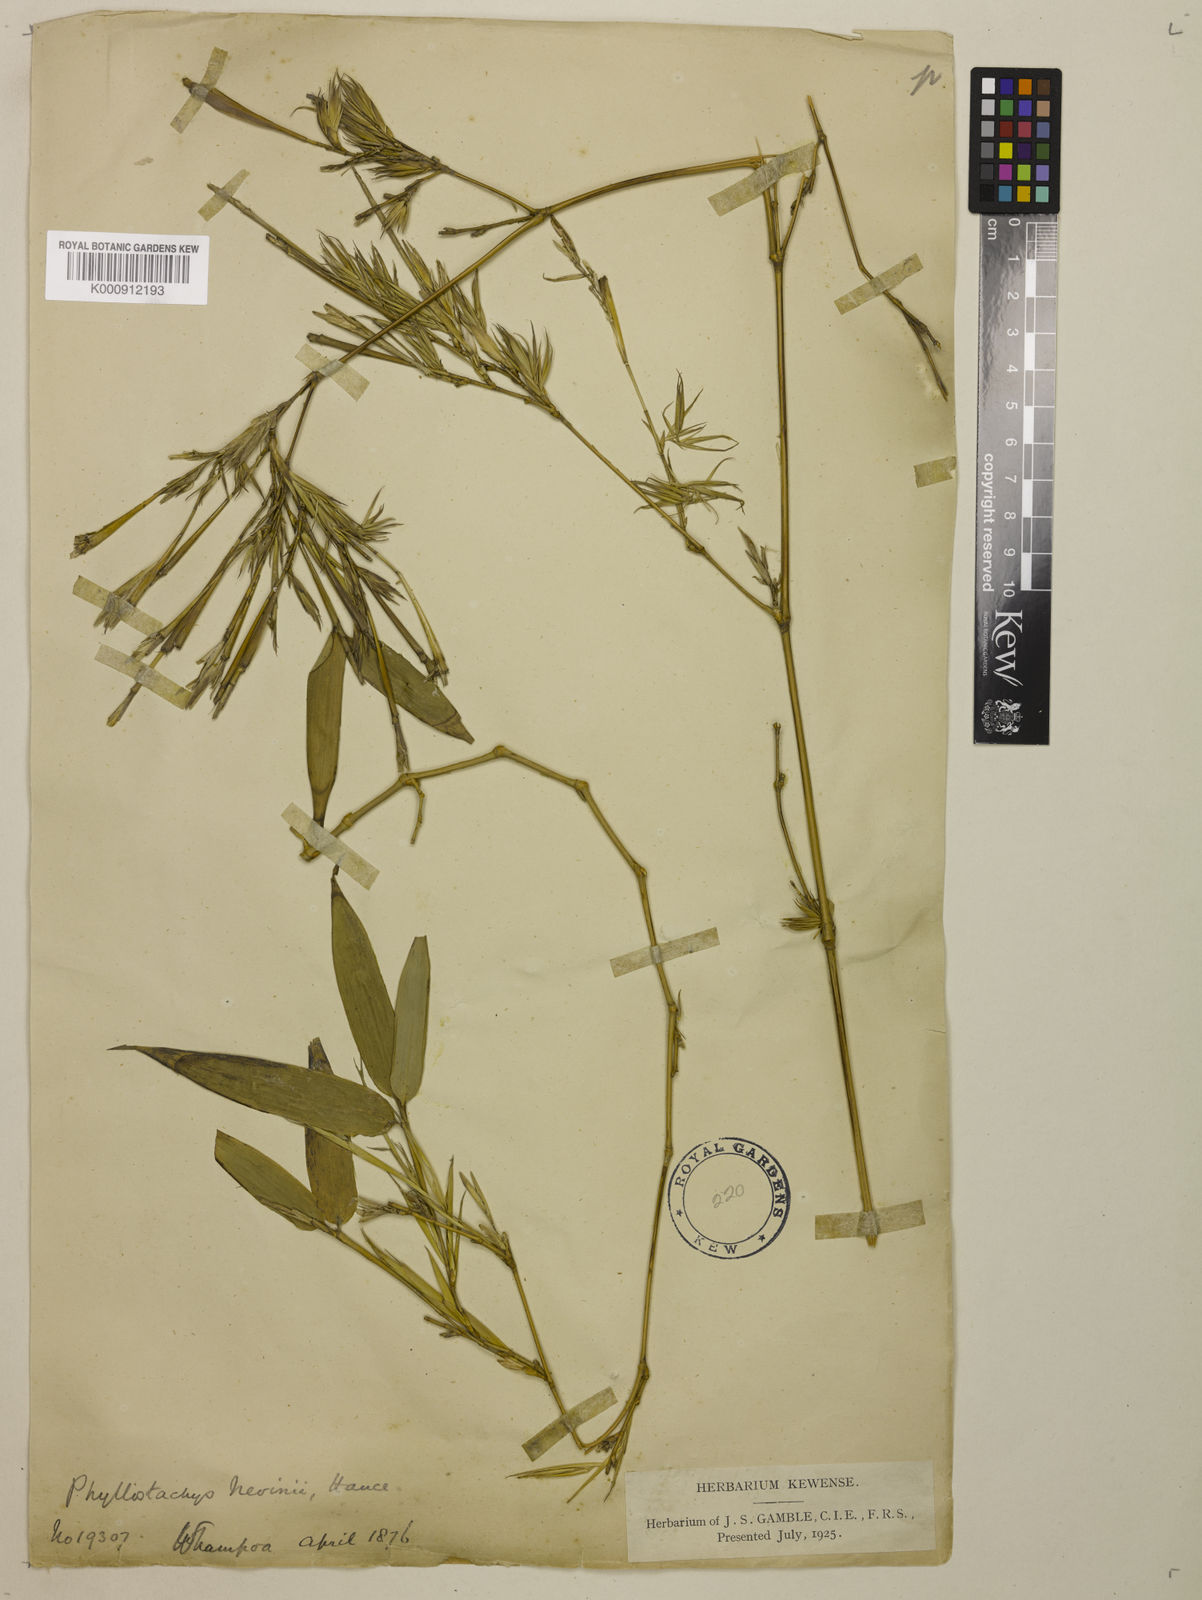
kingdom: Plantae
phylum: Tracheophyta
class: Liliopsida
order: Poales
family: Poaceae
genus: Phyllostachys
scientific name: Phyllostachys nigra
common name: Black bamboo
